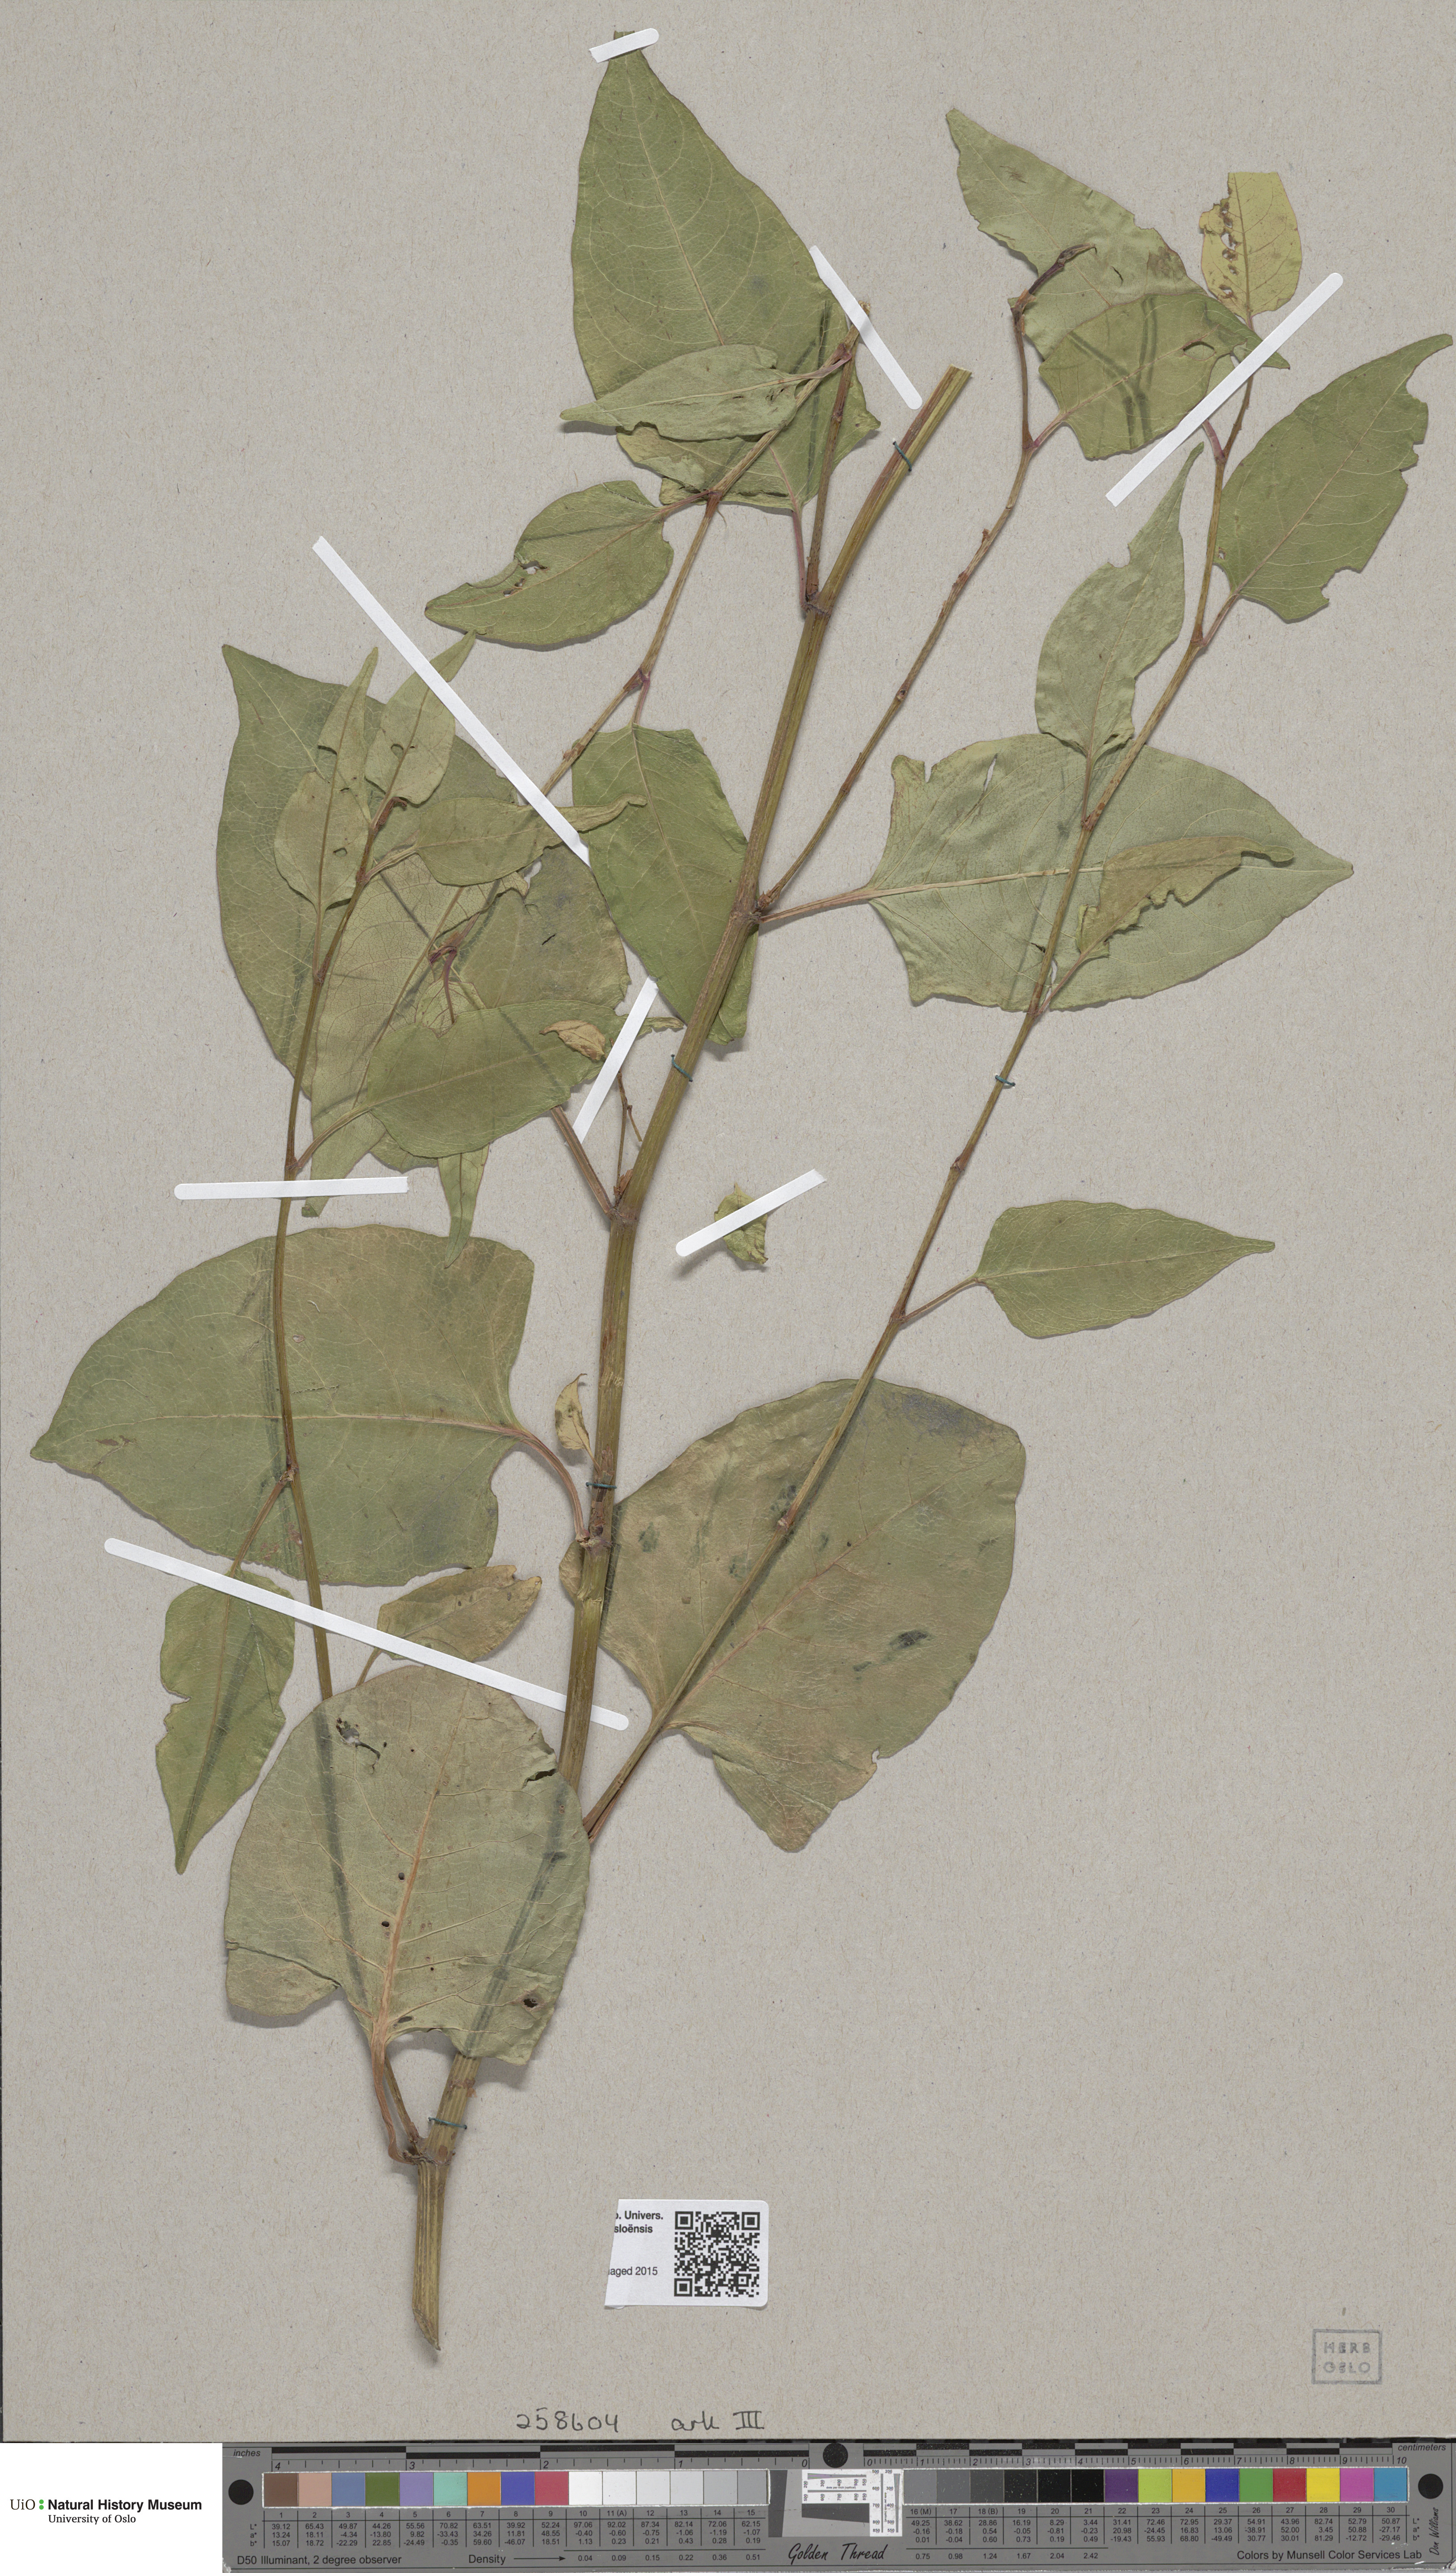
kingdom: Plantae
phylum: Tracheophyta
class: Magnoliopsida
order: Caryophyllales
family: Polygonaceae
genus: Fallopia
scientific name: Fallopia
